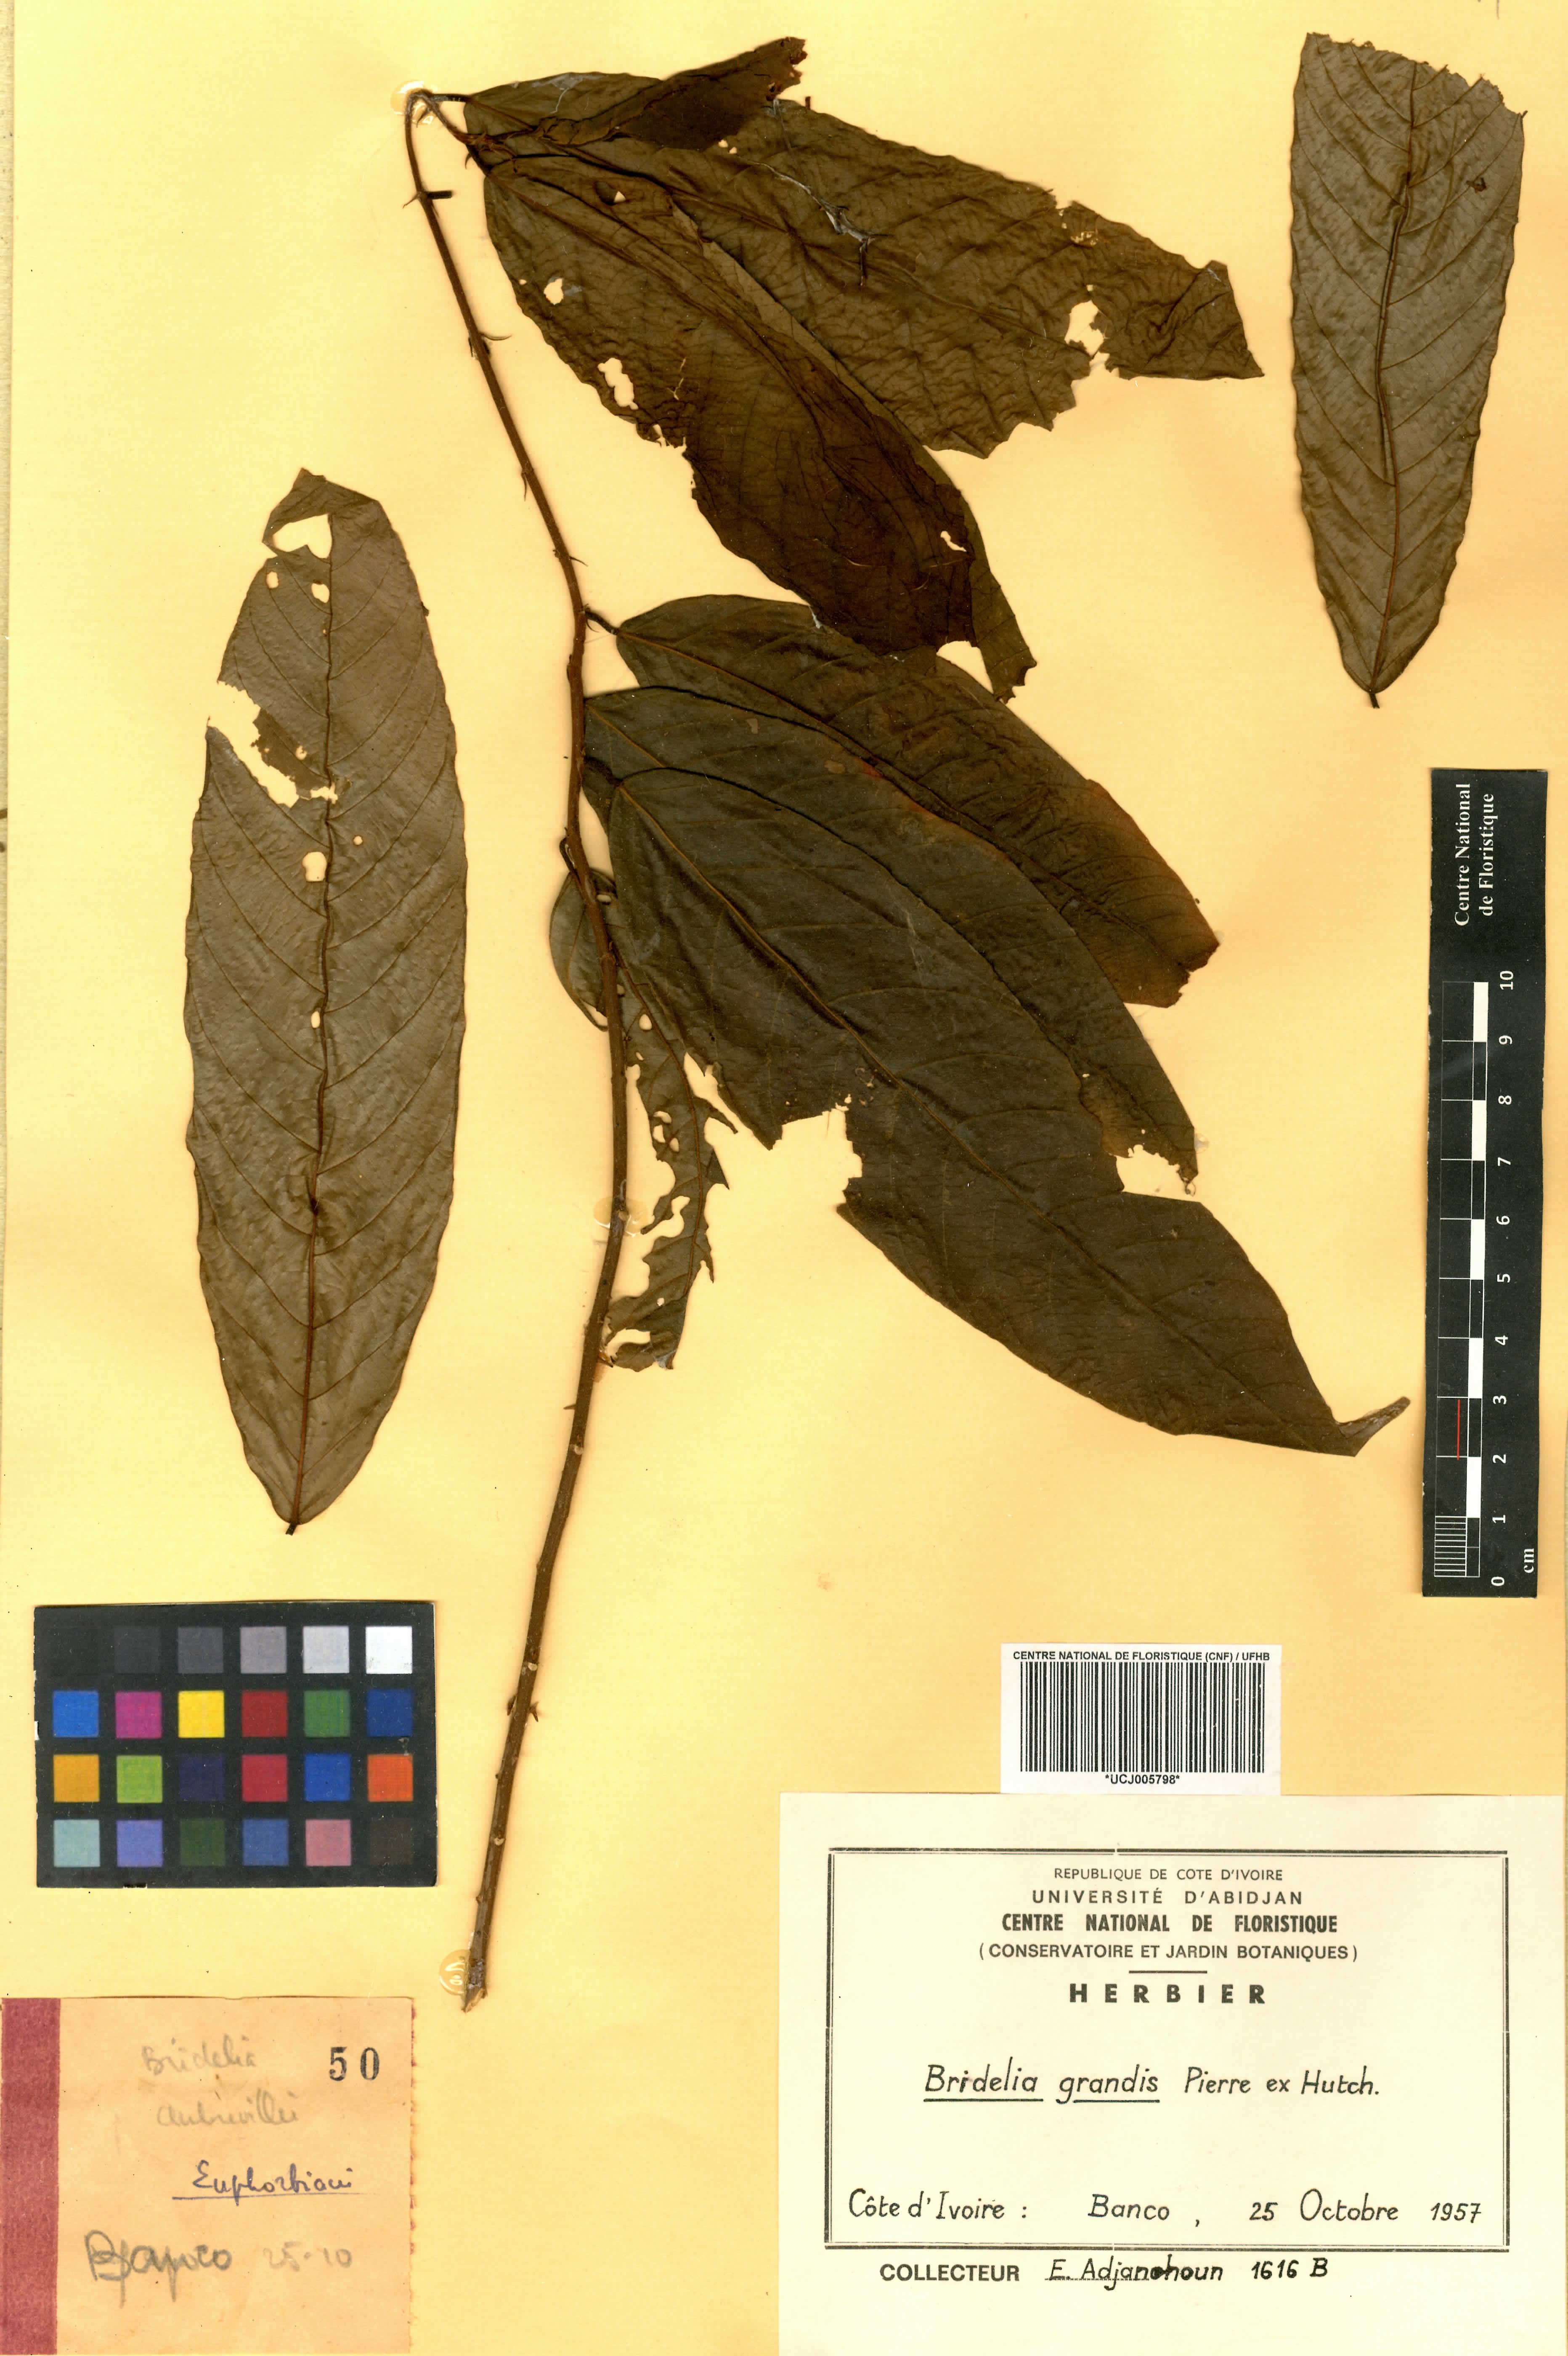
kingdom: Plantae
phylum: Tracheophyta
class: Magnoliopsida
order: Malpighiales
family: Phyllanthaceae
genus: Bridelia
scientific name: Bridelia grandis
